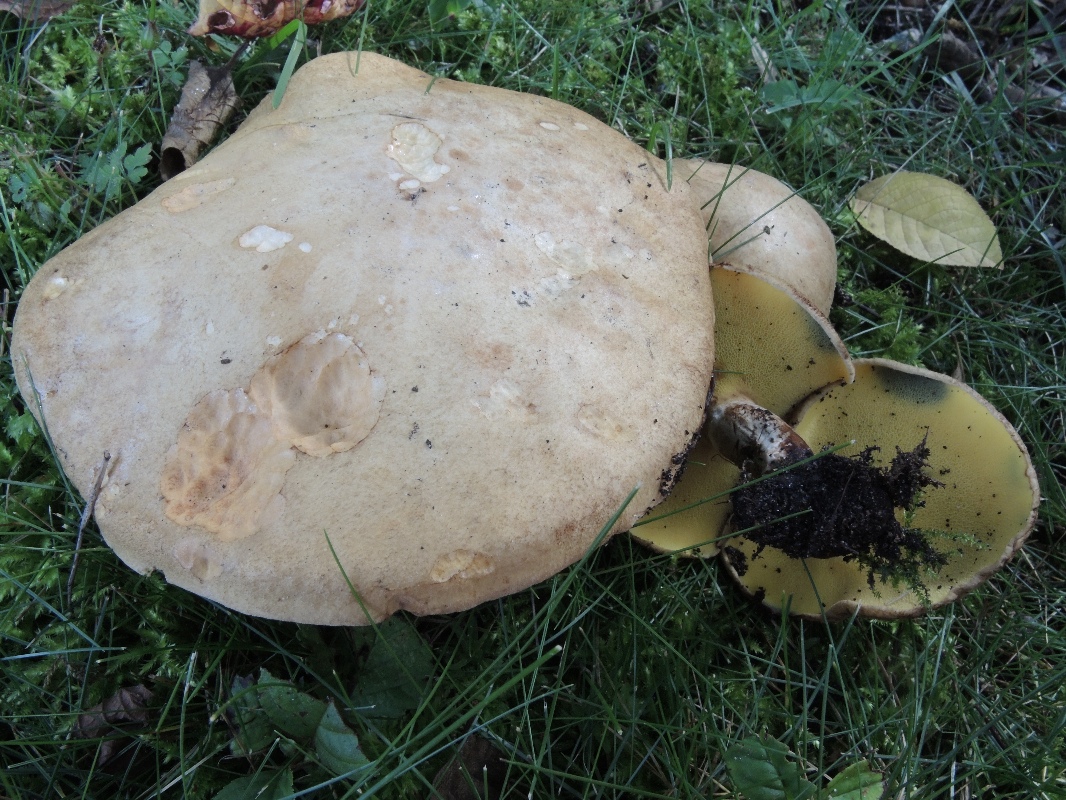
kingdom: Fungi
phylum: Basidiomycota
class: Agaricomycetes
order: Boletales
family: Paxillaceae
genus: Gyrodon
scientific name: Gyrodon lividus
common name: ellerørhat
